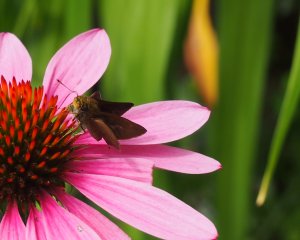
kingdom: Animalia
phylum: Arthropoda
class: Insecta
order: Lepidoptera
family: Hesperiidae
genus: Euphyes
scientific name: Euphyes vestris
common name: Dun Skipper
